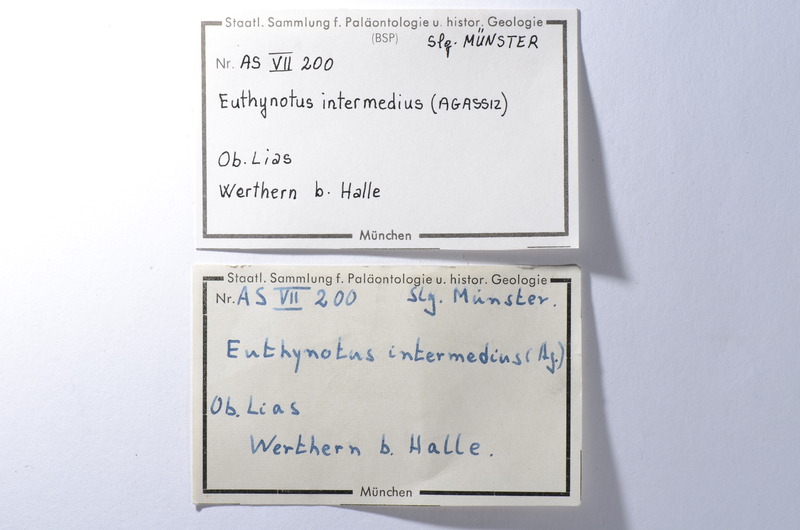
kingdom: Animalia
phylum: Chordata
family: Pachycormidae
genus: Euthynotus
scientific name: Euthynotus intermedius
